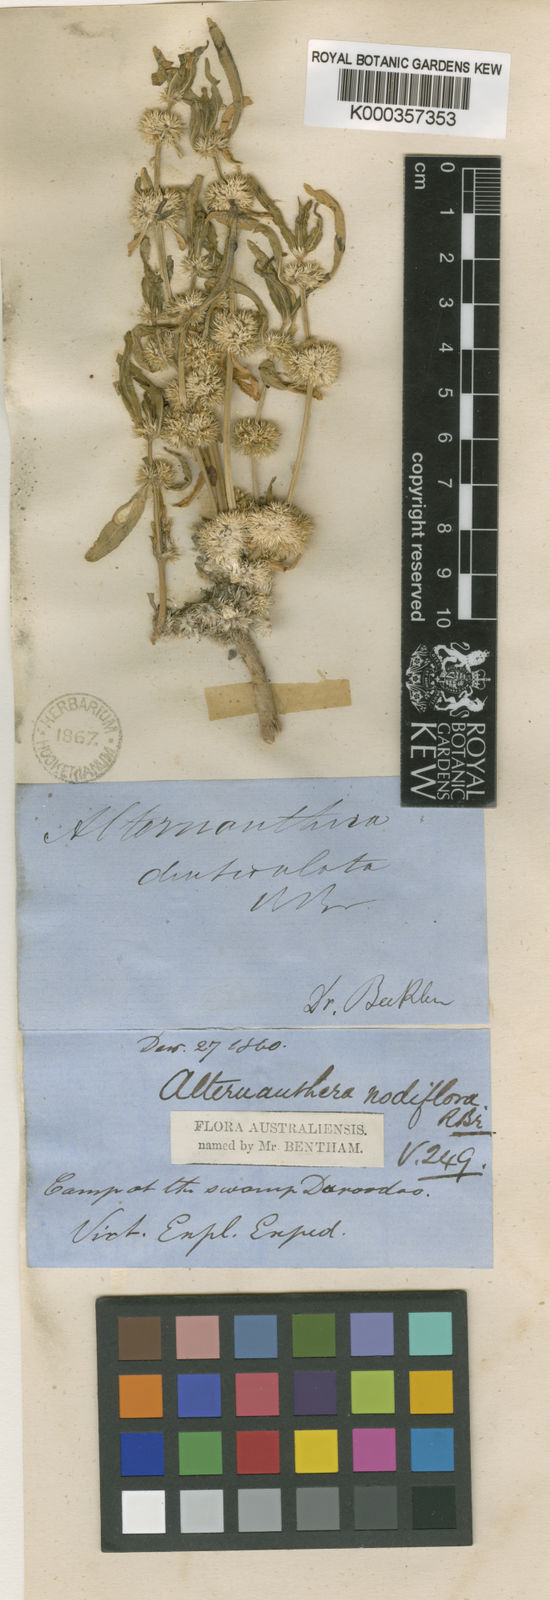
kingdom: Plantae
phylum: Tracheophyta
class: Magnoliopsida
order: Caryophyllales
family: Amaranthaceae
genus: Alternanthera
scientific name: Alternanthera sessilis
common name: Sessile joyweed
